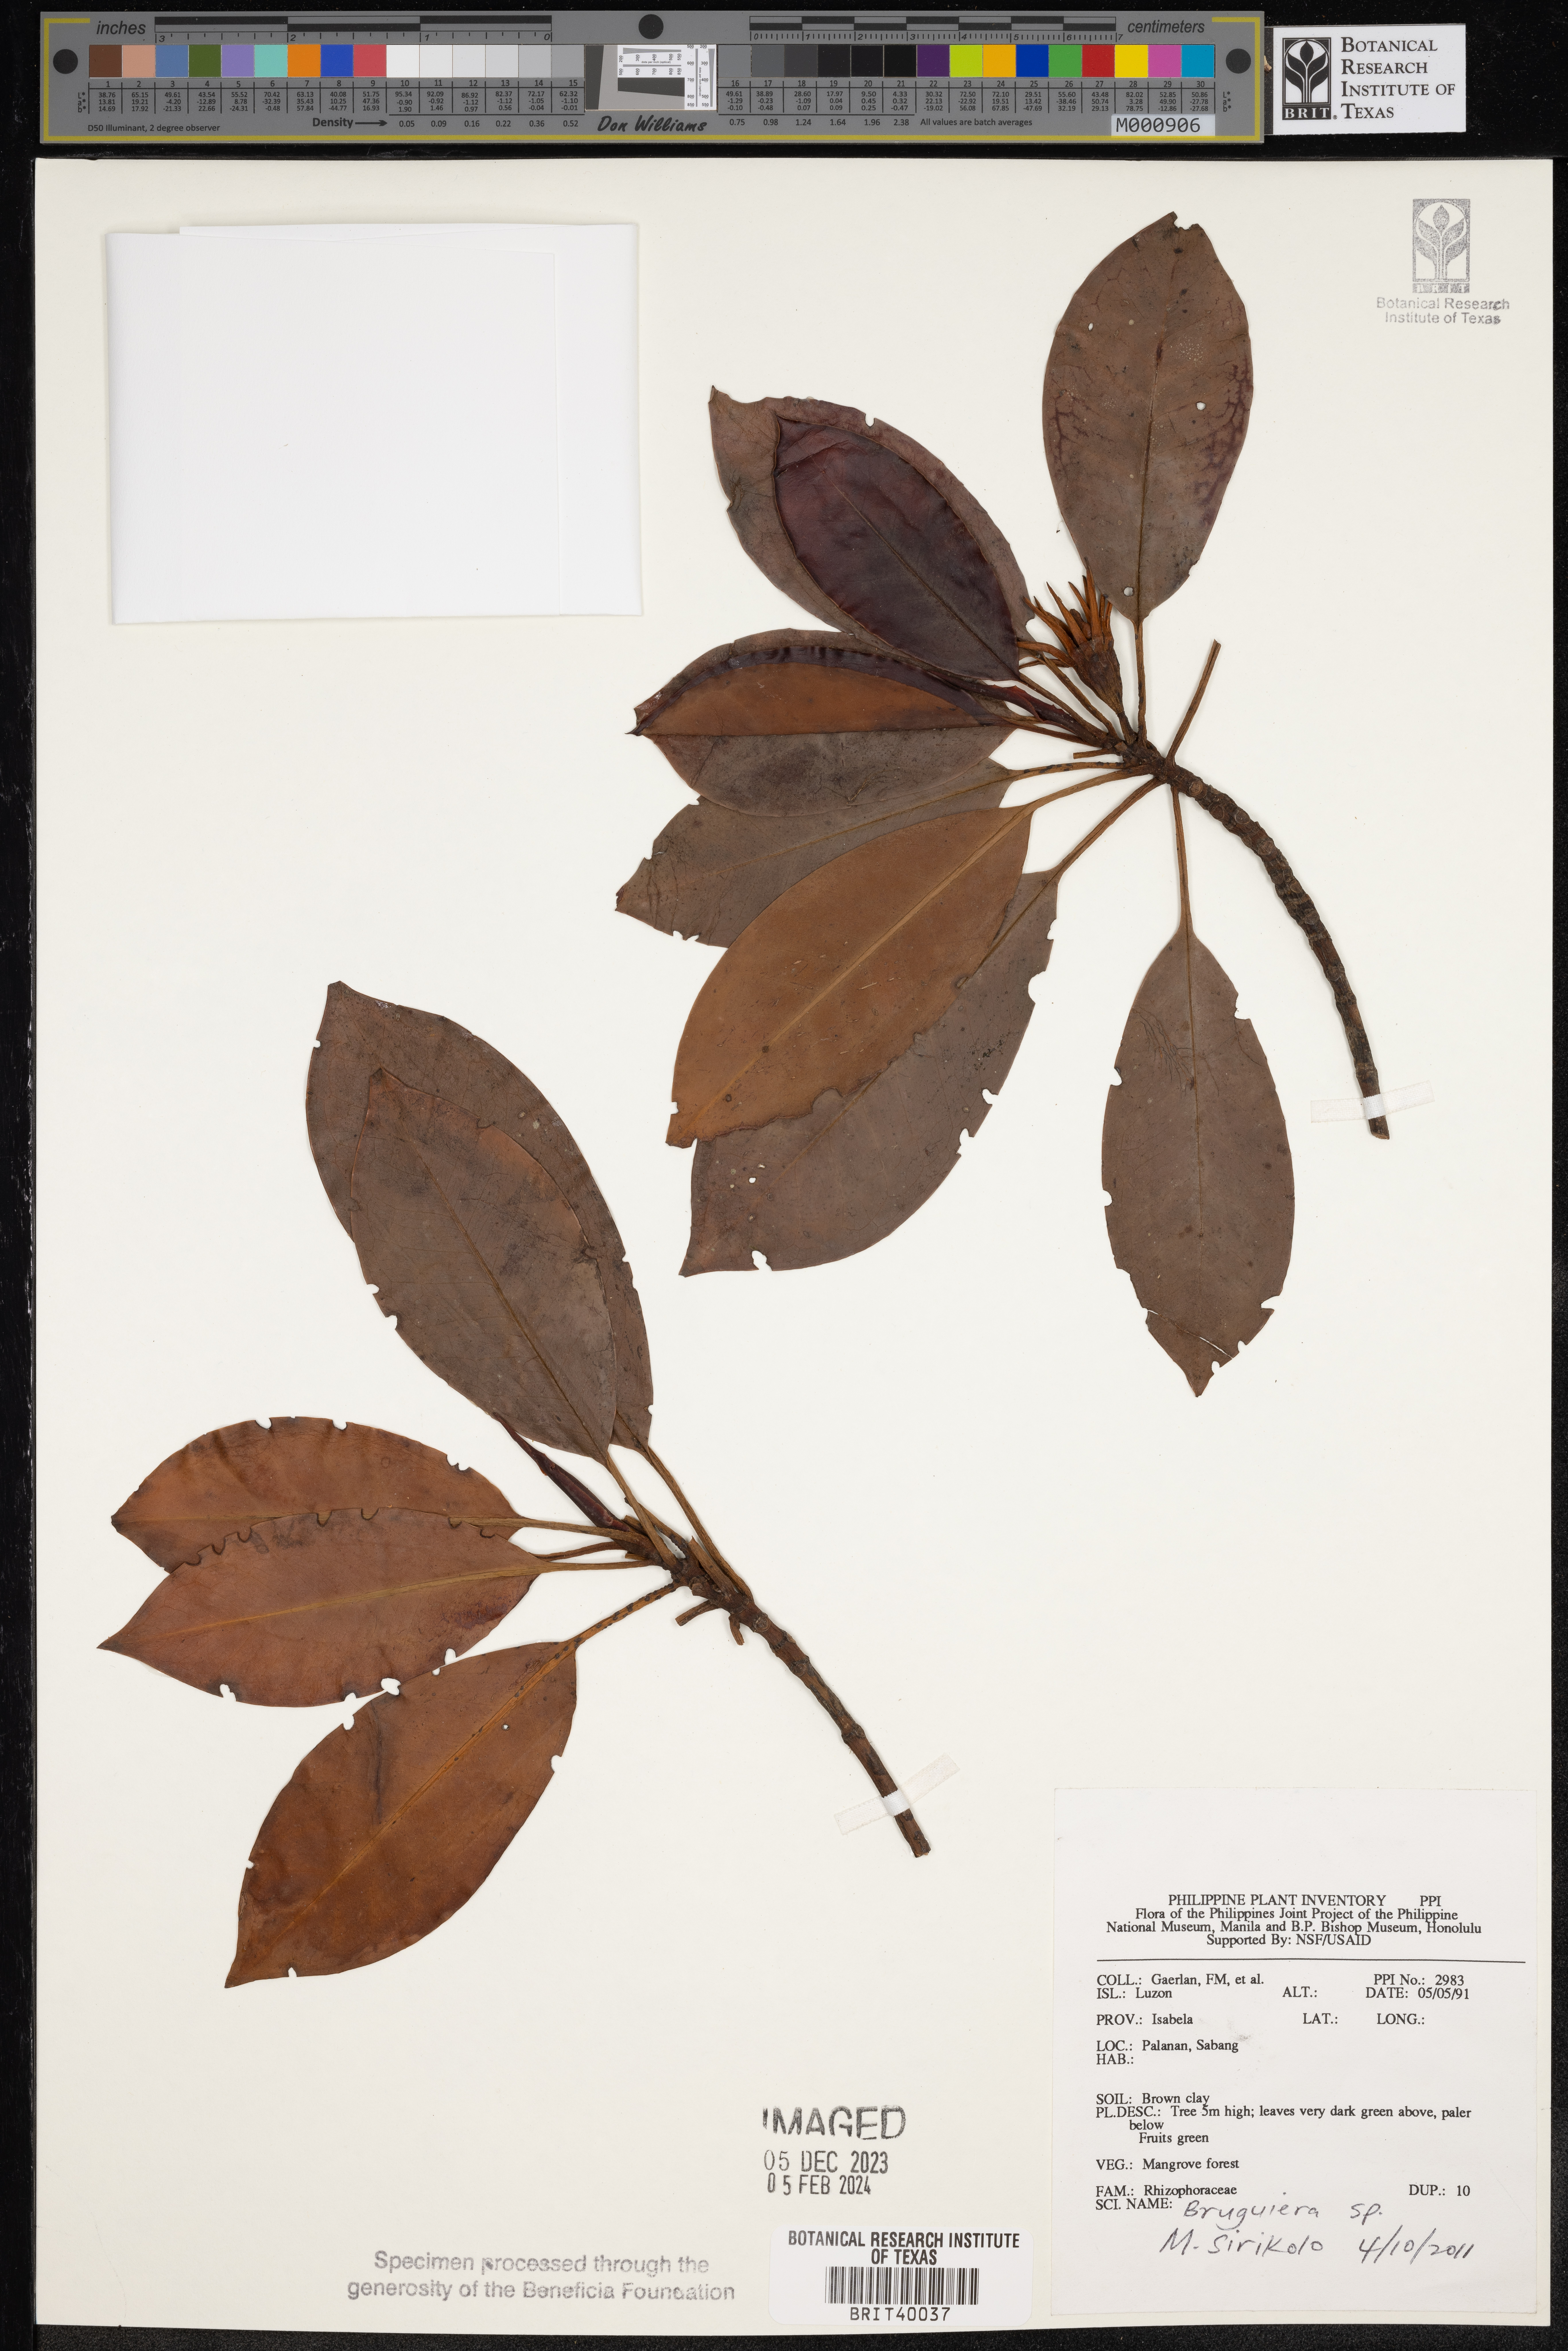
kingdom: Plantae
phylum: Tracheophyta
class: Magnoliopsida
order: Malpighiales
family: Rhizophoraceae
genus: Bruguiera
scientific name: Bruguiera
